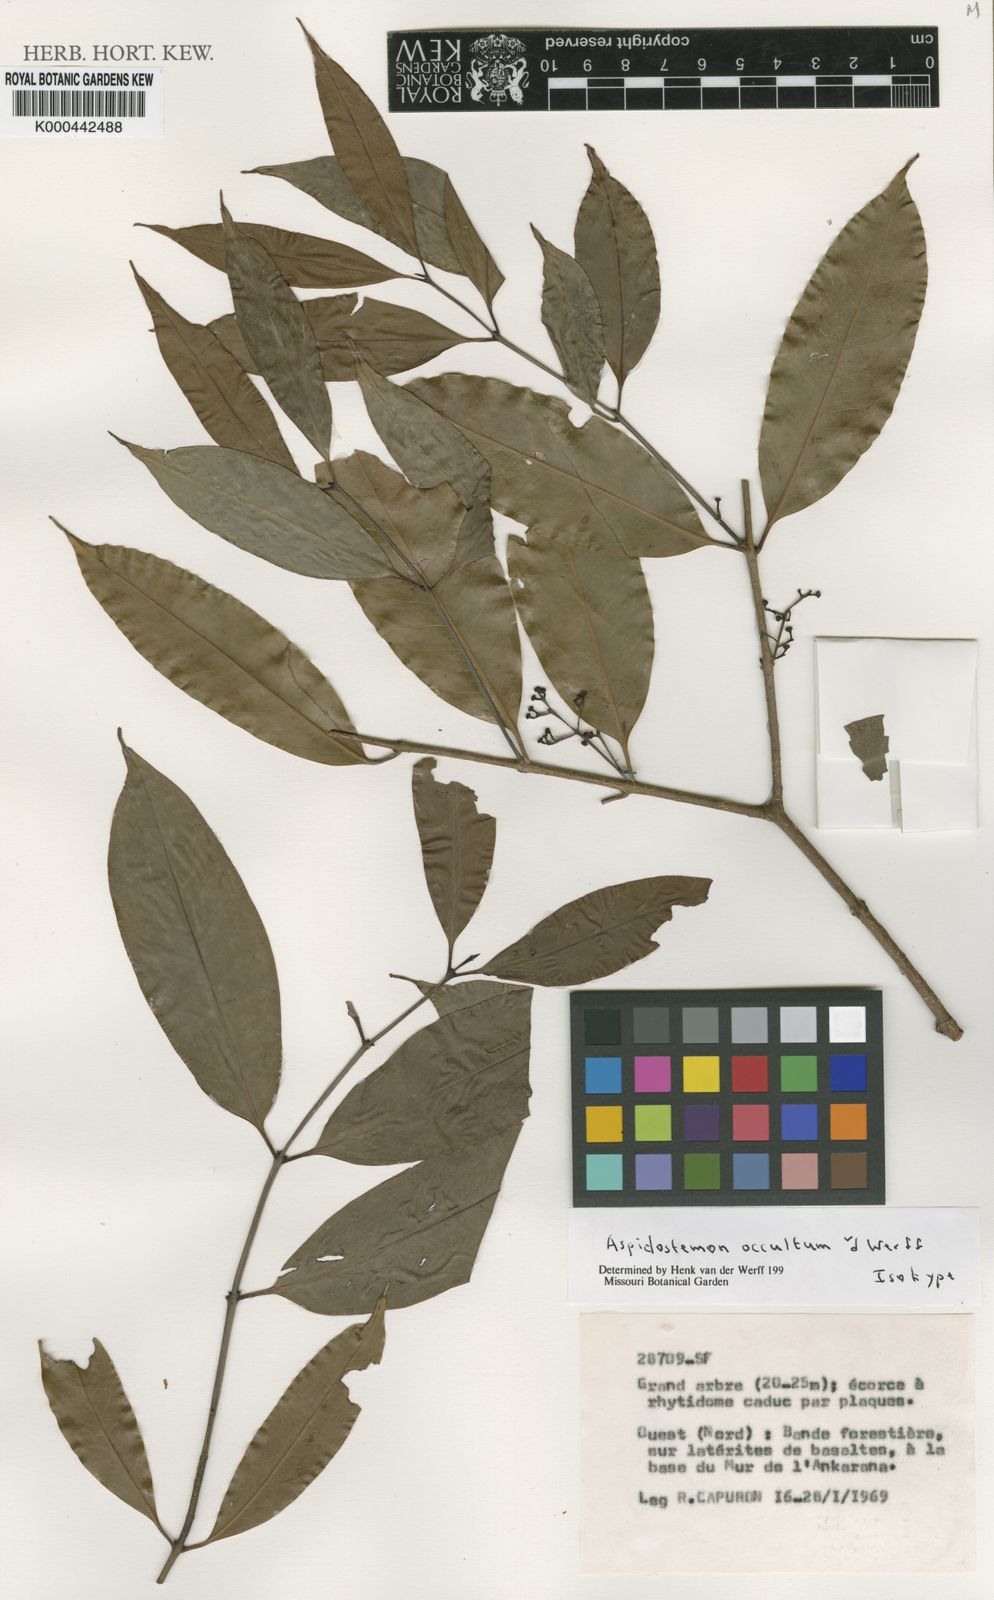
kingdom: Plantae
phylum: Tracheophyta
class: Magnoliopsida
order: Laurales
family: Lauraceae
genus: Aspidostemon
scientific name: Aspidostemon occultus
